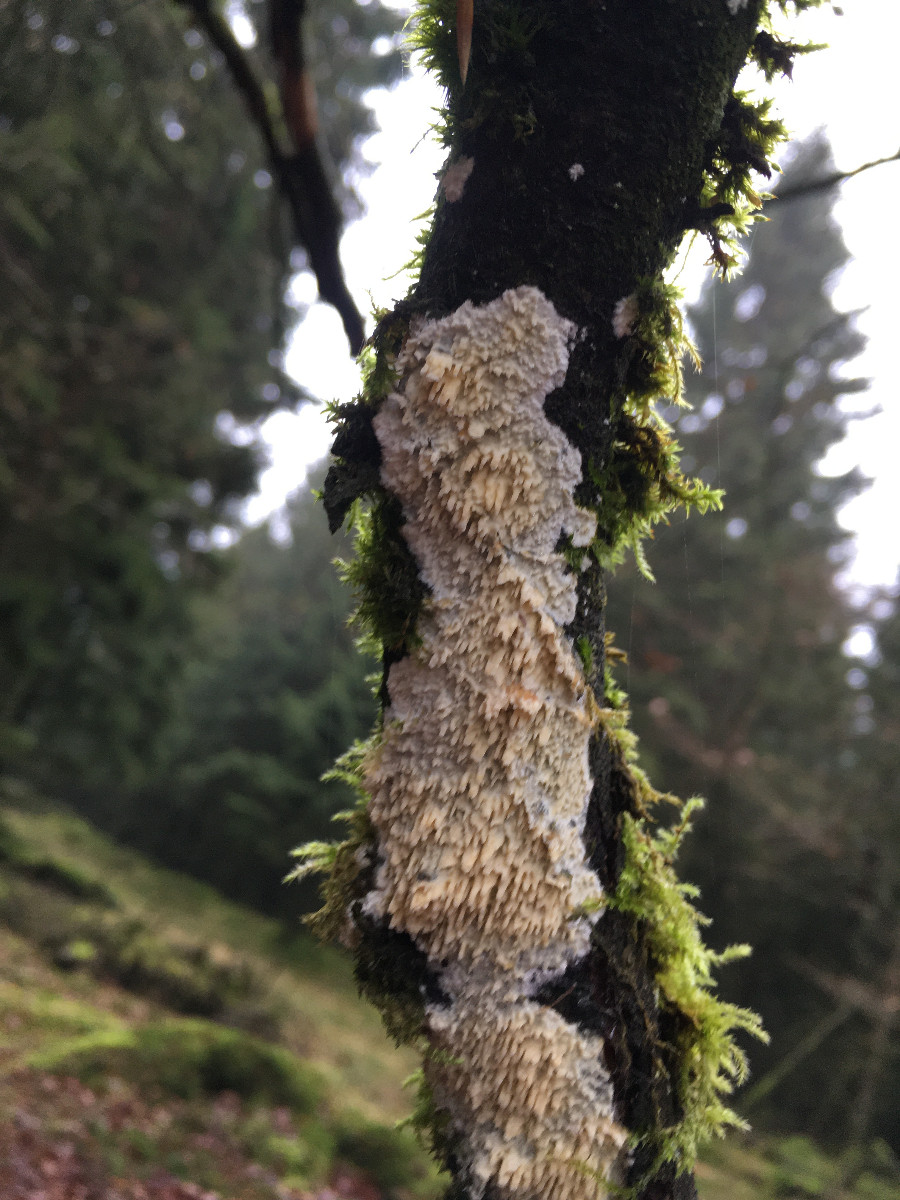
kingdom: Fungi
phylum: Basidiomycota
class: Agaricomycetes
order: Corticiales
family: Corticiaceae
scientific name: Corticiaceae
